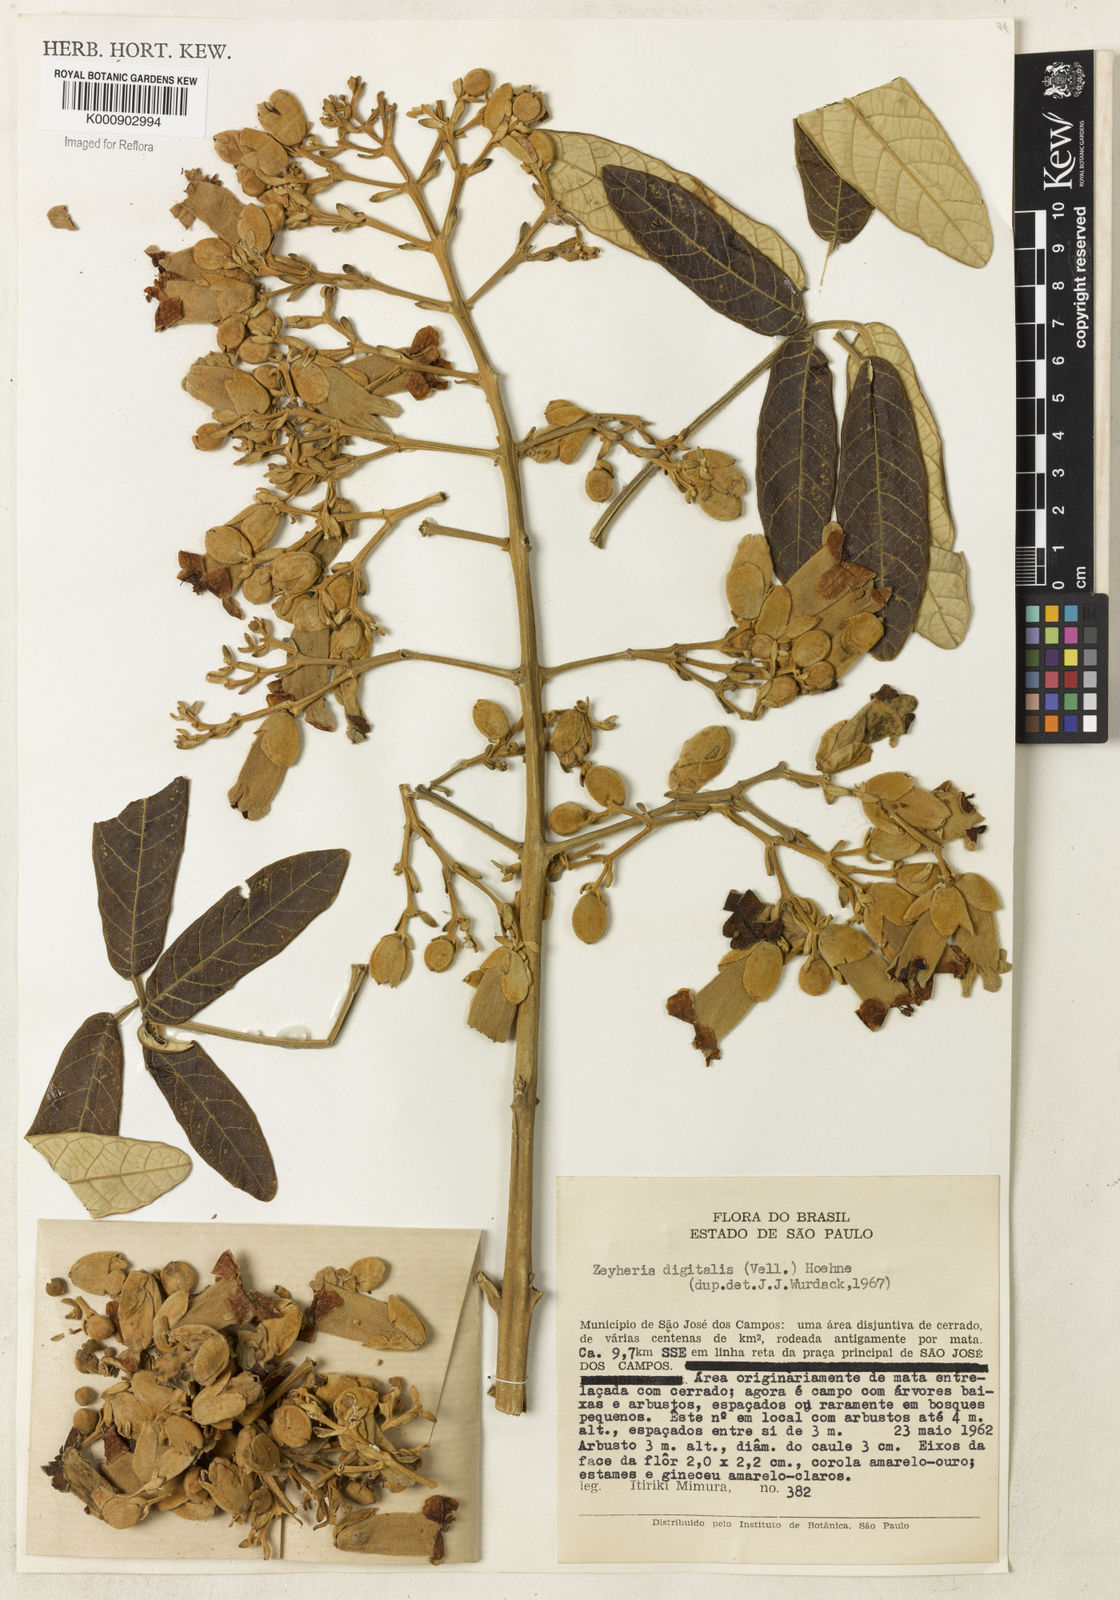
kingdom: Plantae
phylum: Tracheophyta
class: Magnoliopsida
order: Lamiales
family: Bignoniaceae
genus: Zeyheria
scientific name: Zeyheria
